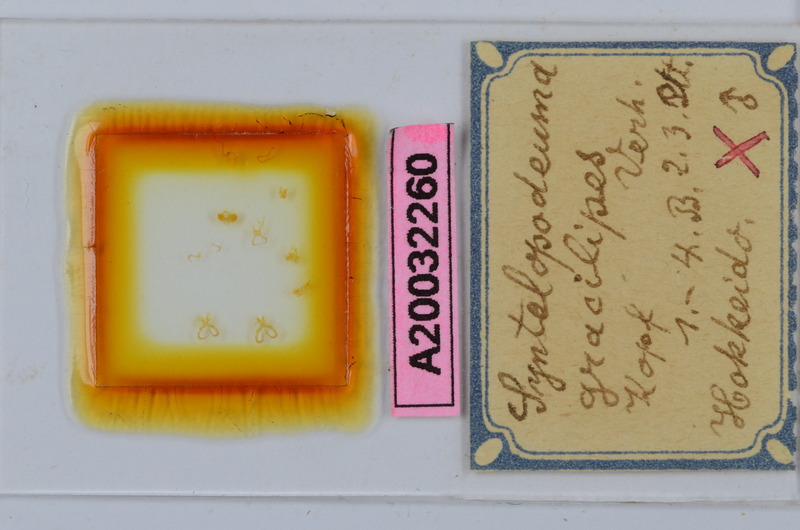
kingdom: Animalia
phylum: Arthropoda
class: Diplopoda
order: Chordeumatida
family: Diplomaragnidae
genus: Diplomaragna
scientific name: Diplomaragna gracilipes
